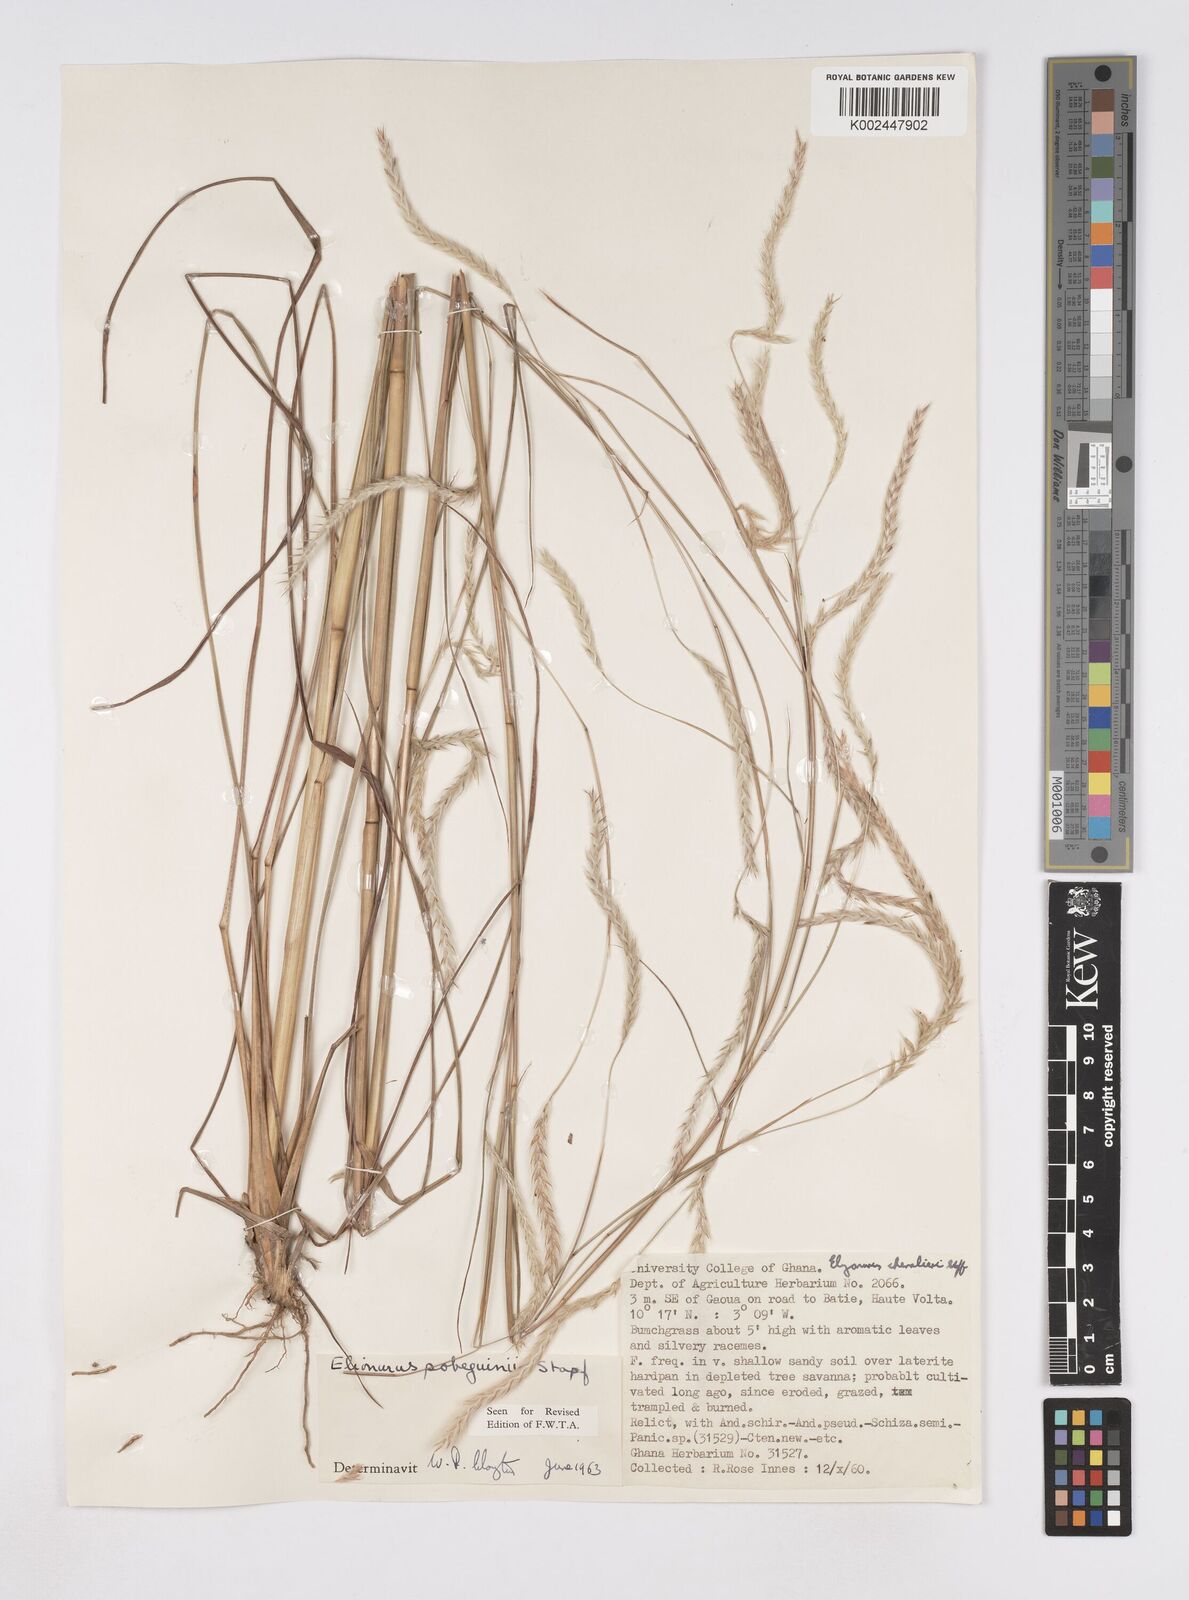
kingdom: Plantae
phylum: Tracheophyta
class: Liliopsida
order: Poales
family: Poaceae
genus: Elionurus
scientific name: Elionurus ciliaris
